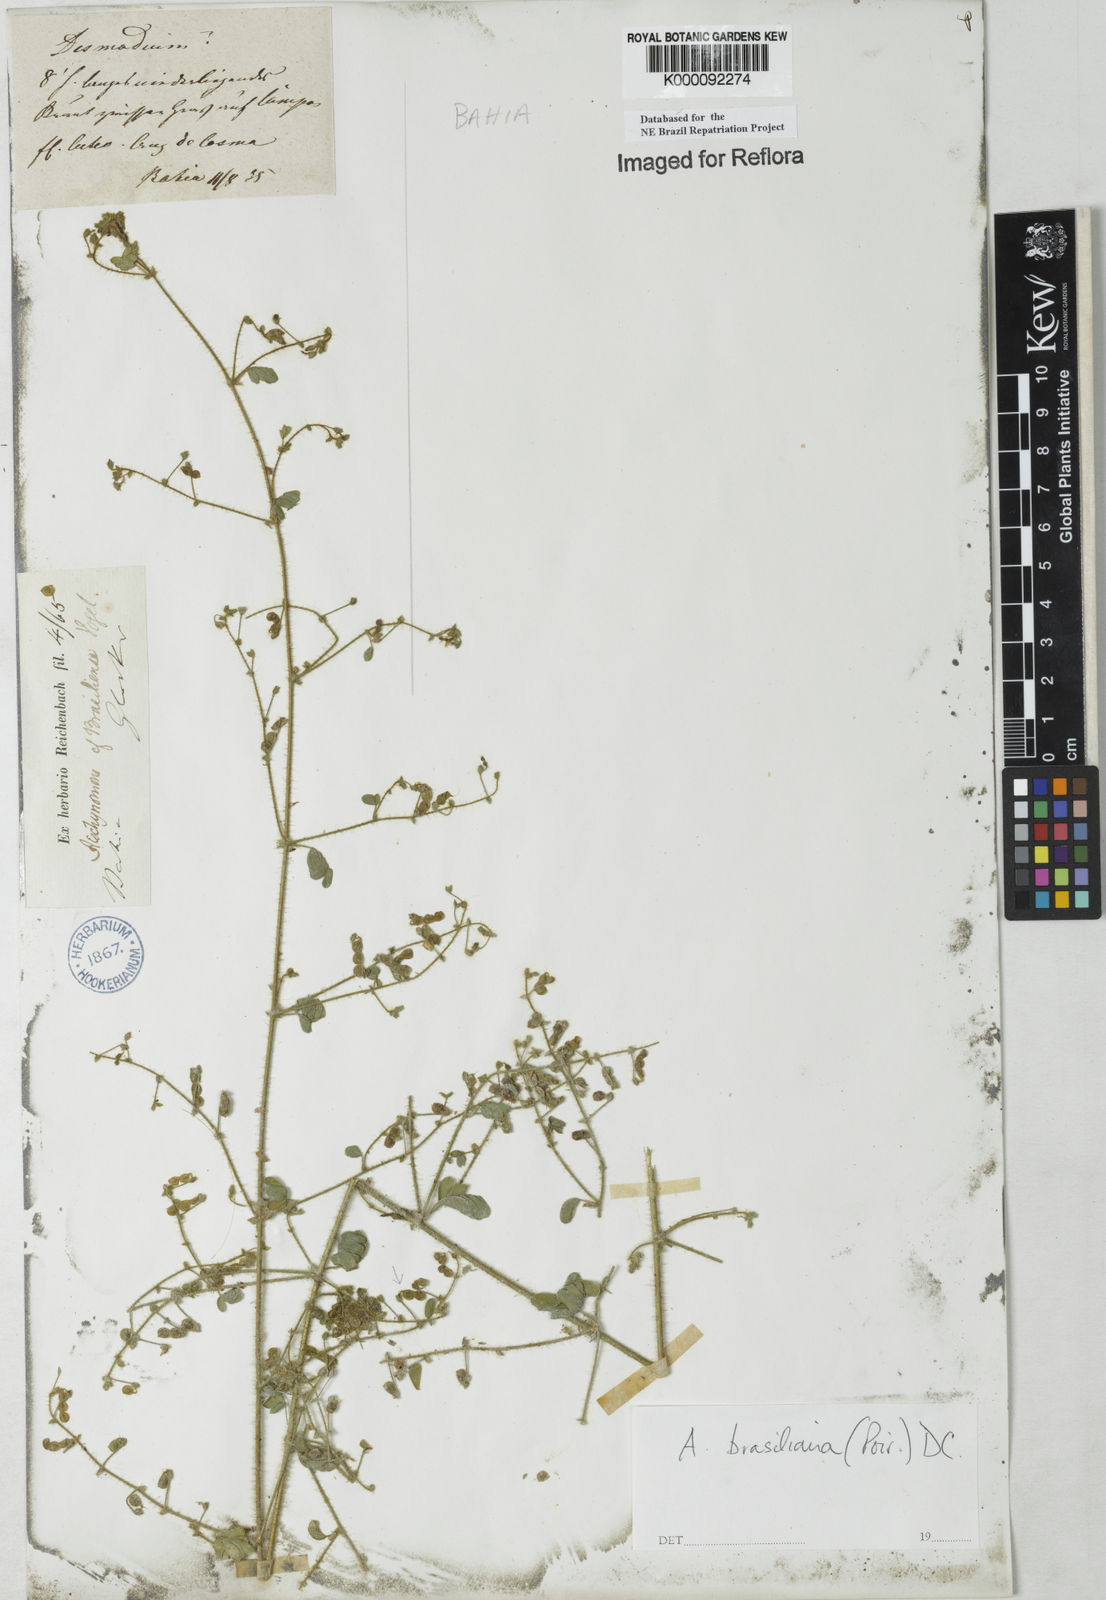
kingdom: Plantae
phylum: Tracheophyta
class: Magnoliopsida
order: Fabales
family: Fabaceae
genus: Ctenodon
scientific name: Ctenodon brasilianus
